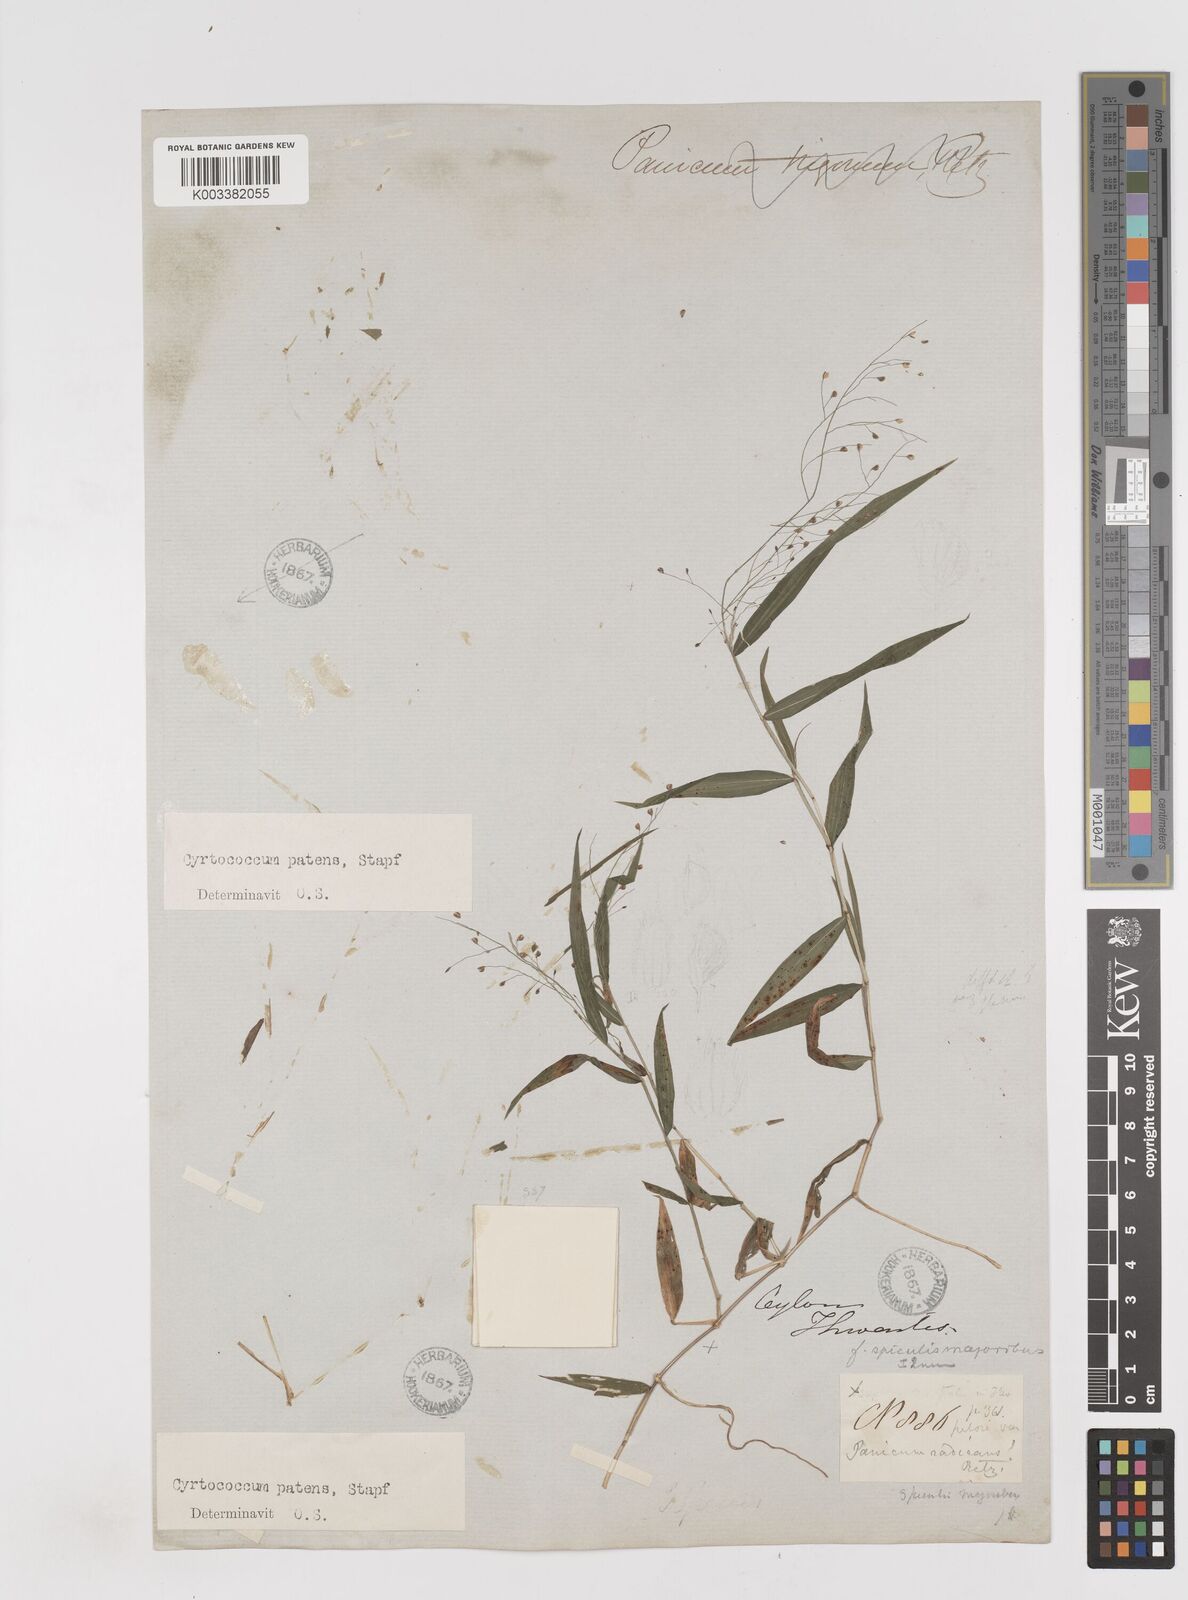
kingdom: Plantae
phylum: Tracheophyta
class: Liliopsida
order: Poales
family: Poaceae
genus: Cyrtococcum
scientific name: Cyrtococcum deccanense
